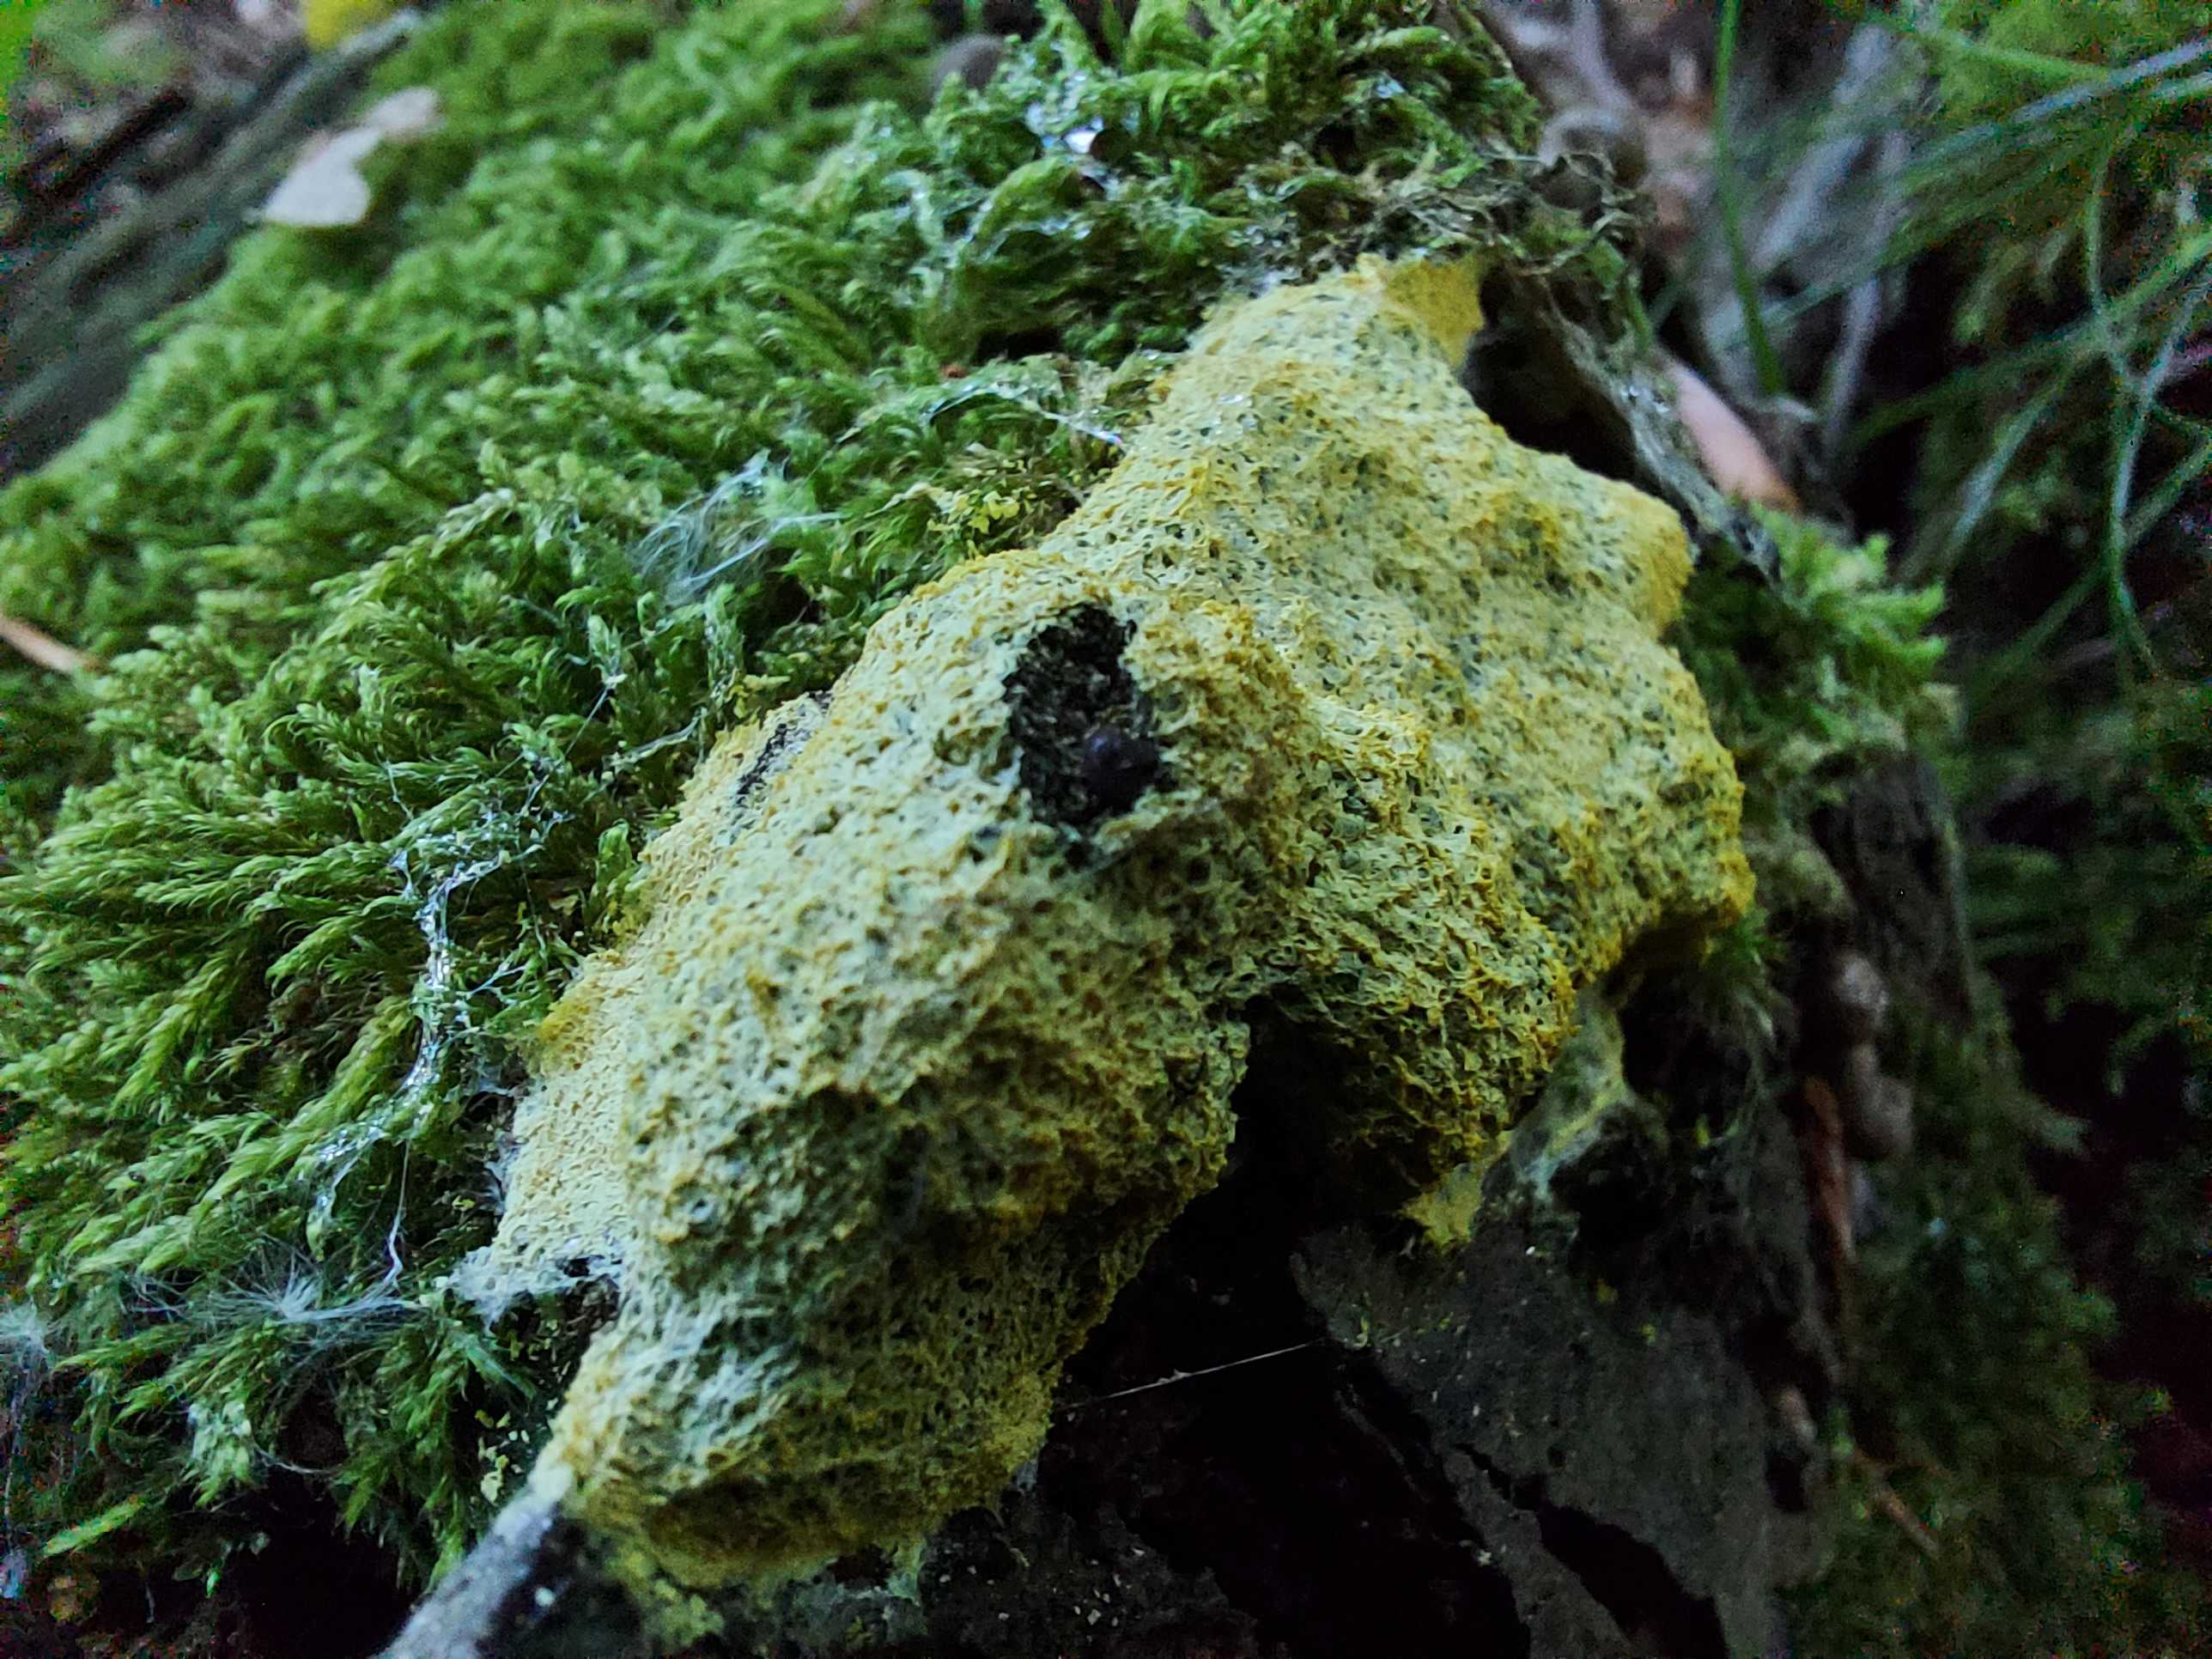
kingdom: Protozoa
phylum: Mycetozoa
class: Myxomycetes
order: Physarales
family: Physaraceae
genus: Fuligo
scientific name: Fuligo septica
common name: gul troldsmør
